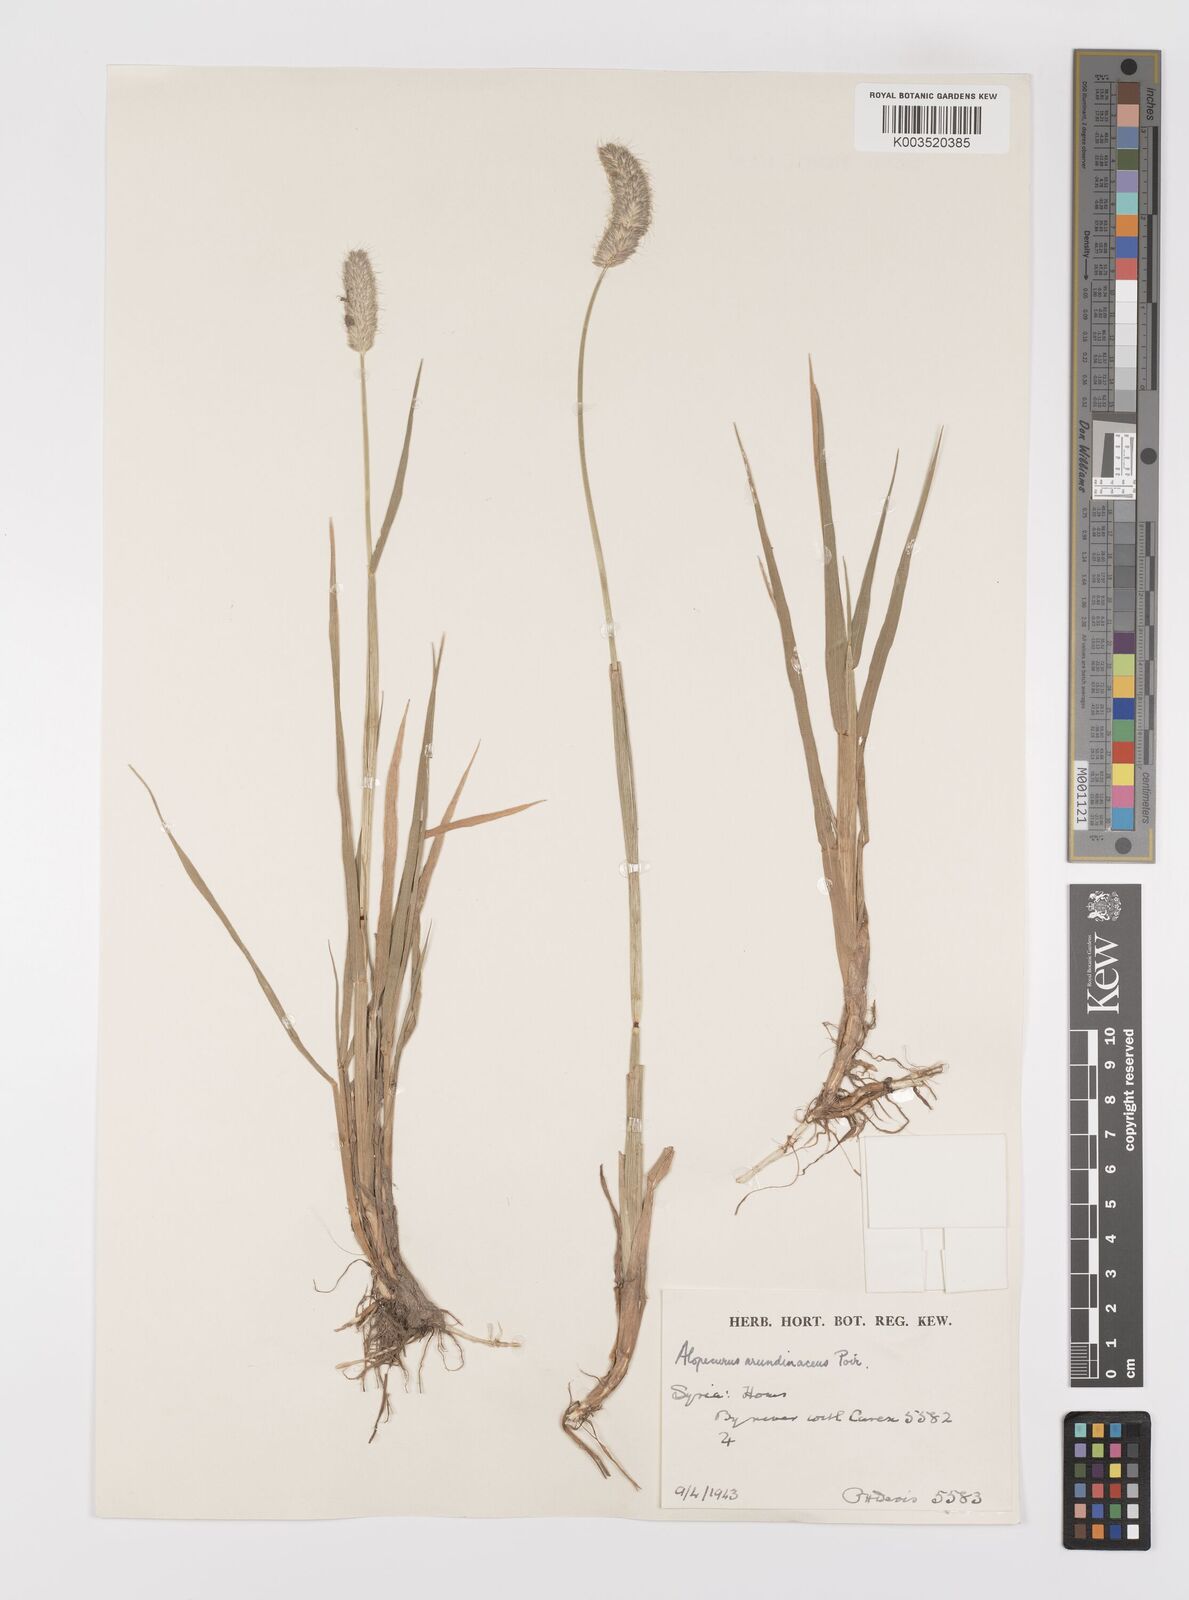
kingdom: Plantae
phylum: Tracheophyta
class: Liliopsida
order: Poales
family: Poaceae
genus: Alopecurus
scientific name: Alopecurus arundinaceus
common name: Creeping meadow foxtail
